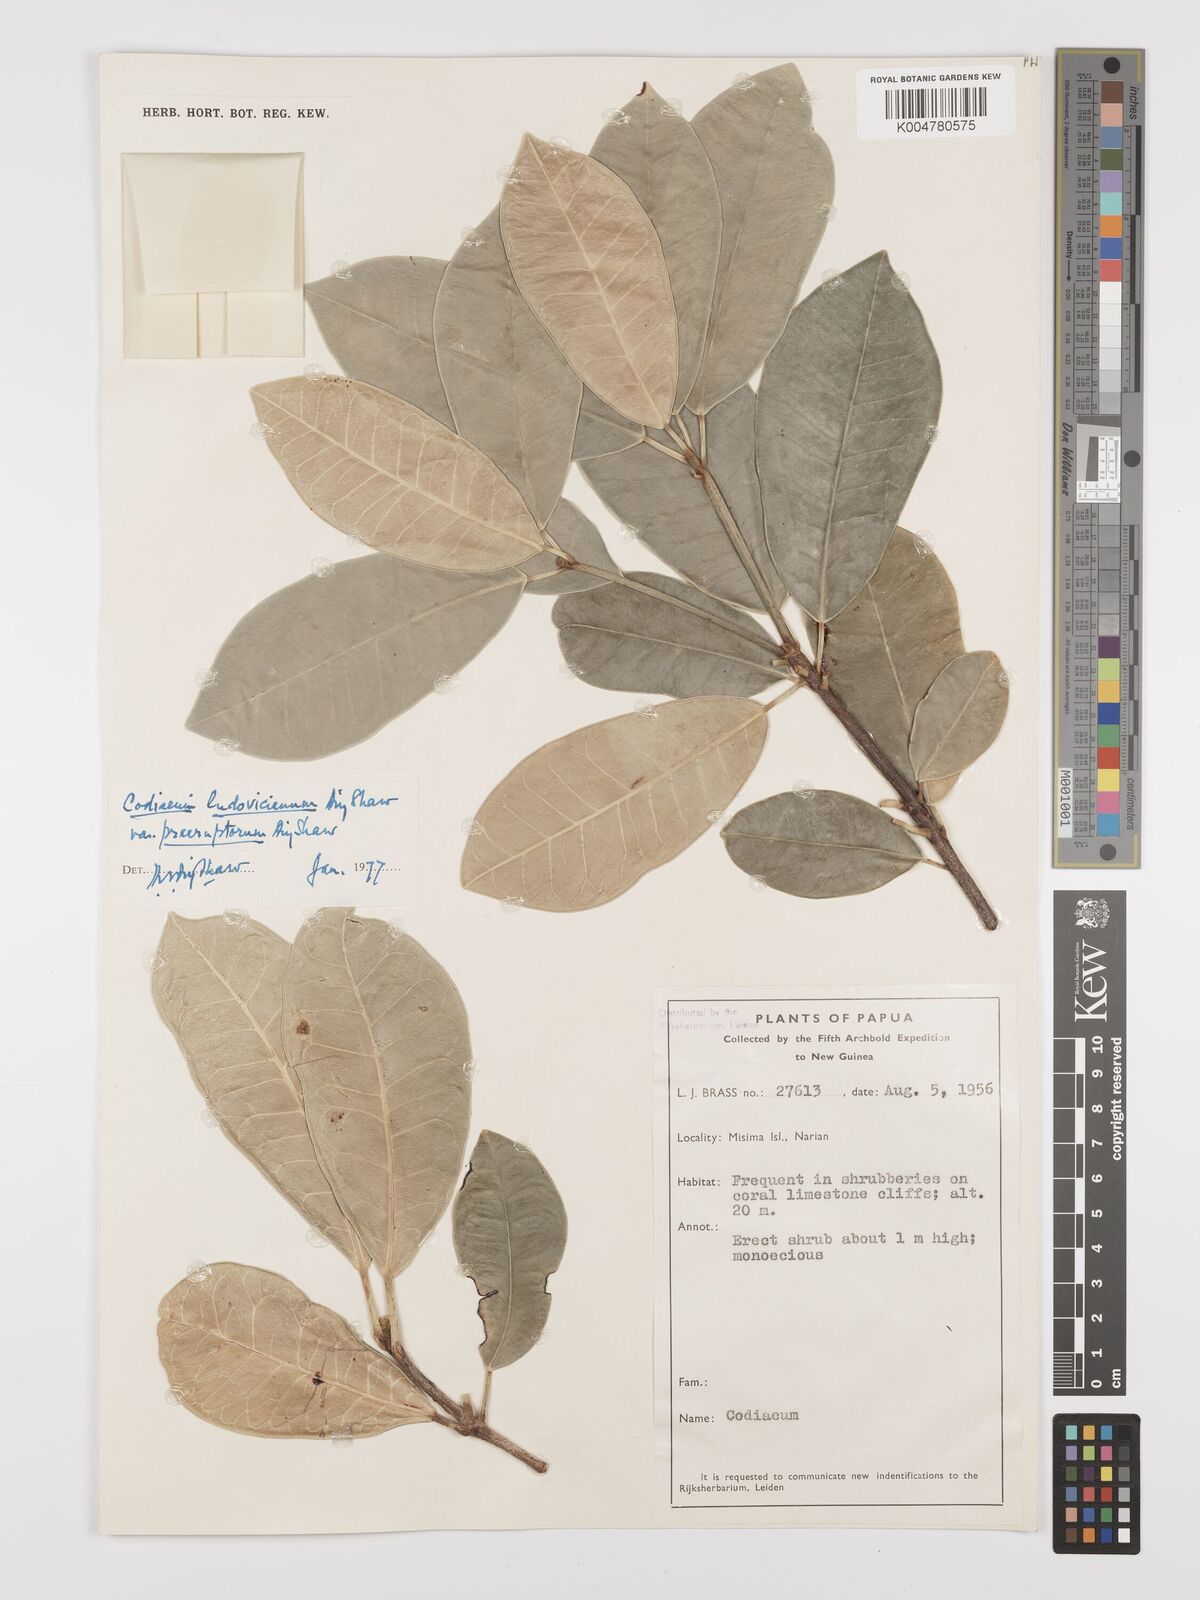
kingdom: Plantae
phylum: Tracheophyta
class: Magnoliopsida
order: Malpighiales
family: Euphorbiaceae
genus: Codiaeum
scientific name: Codiaeum ludovicianum
